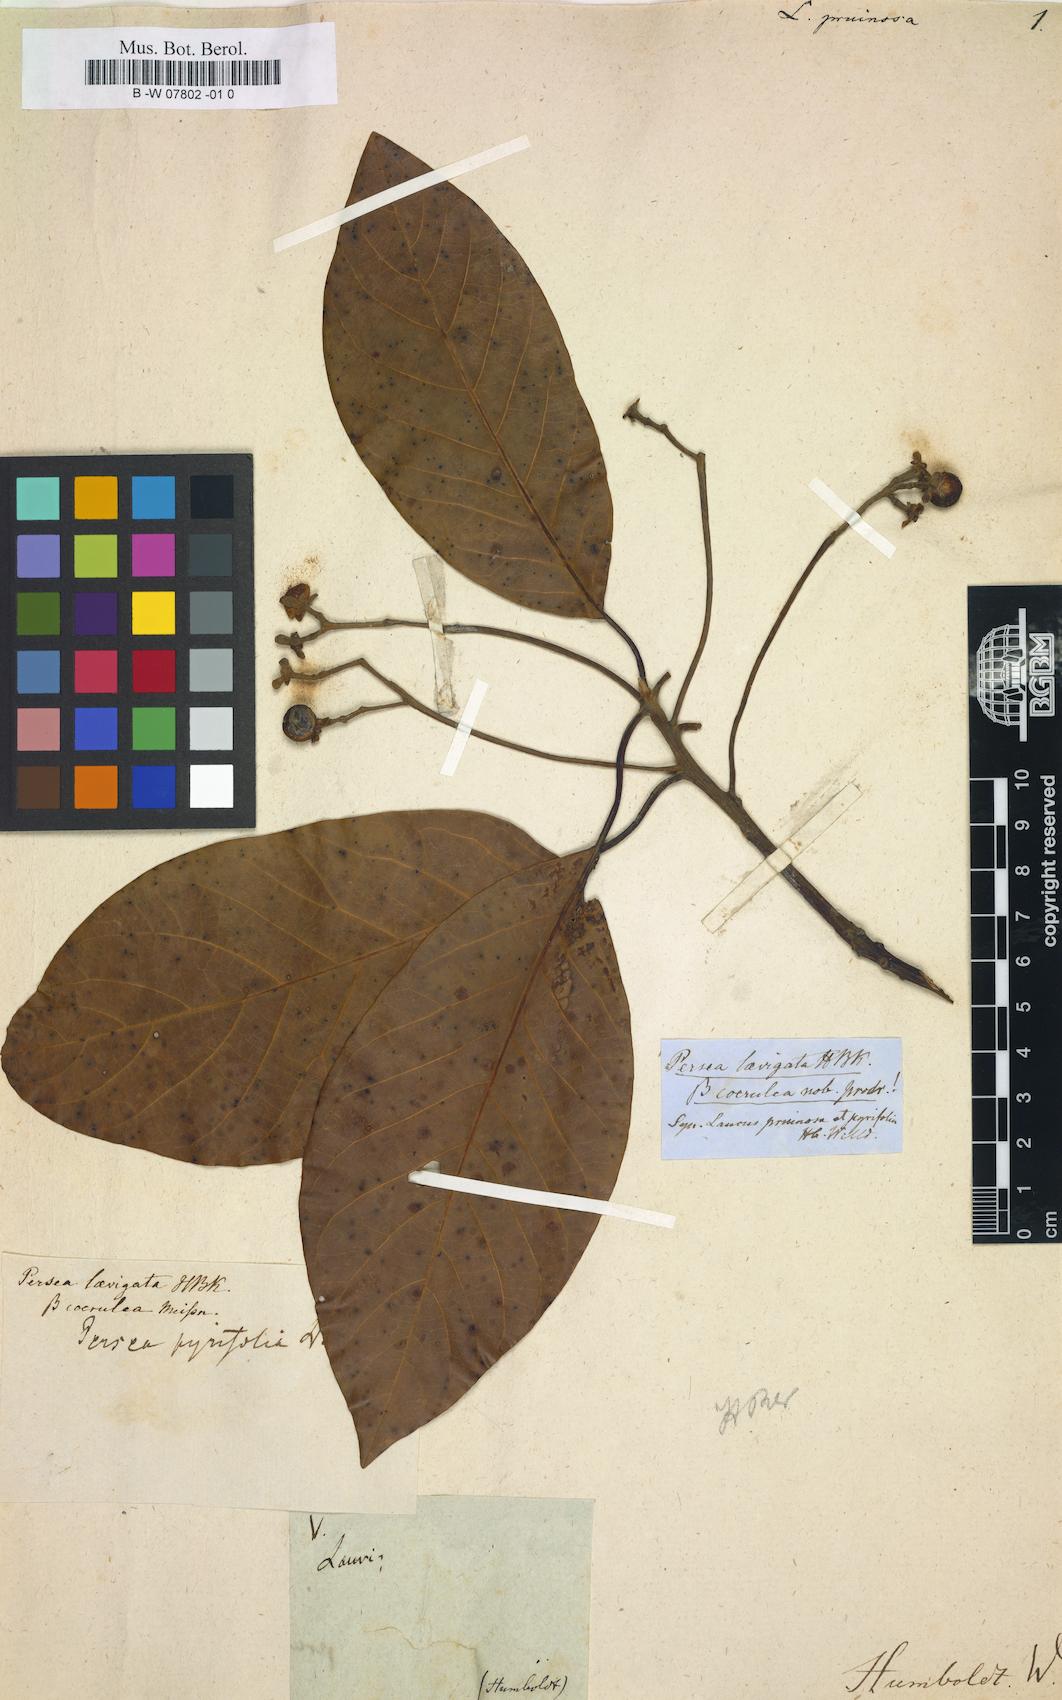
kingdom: Plantae
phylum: Tracheophyta
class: Magnoliopsida
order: Laurales
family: Lauraceae
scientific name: Lauraceae
